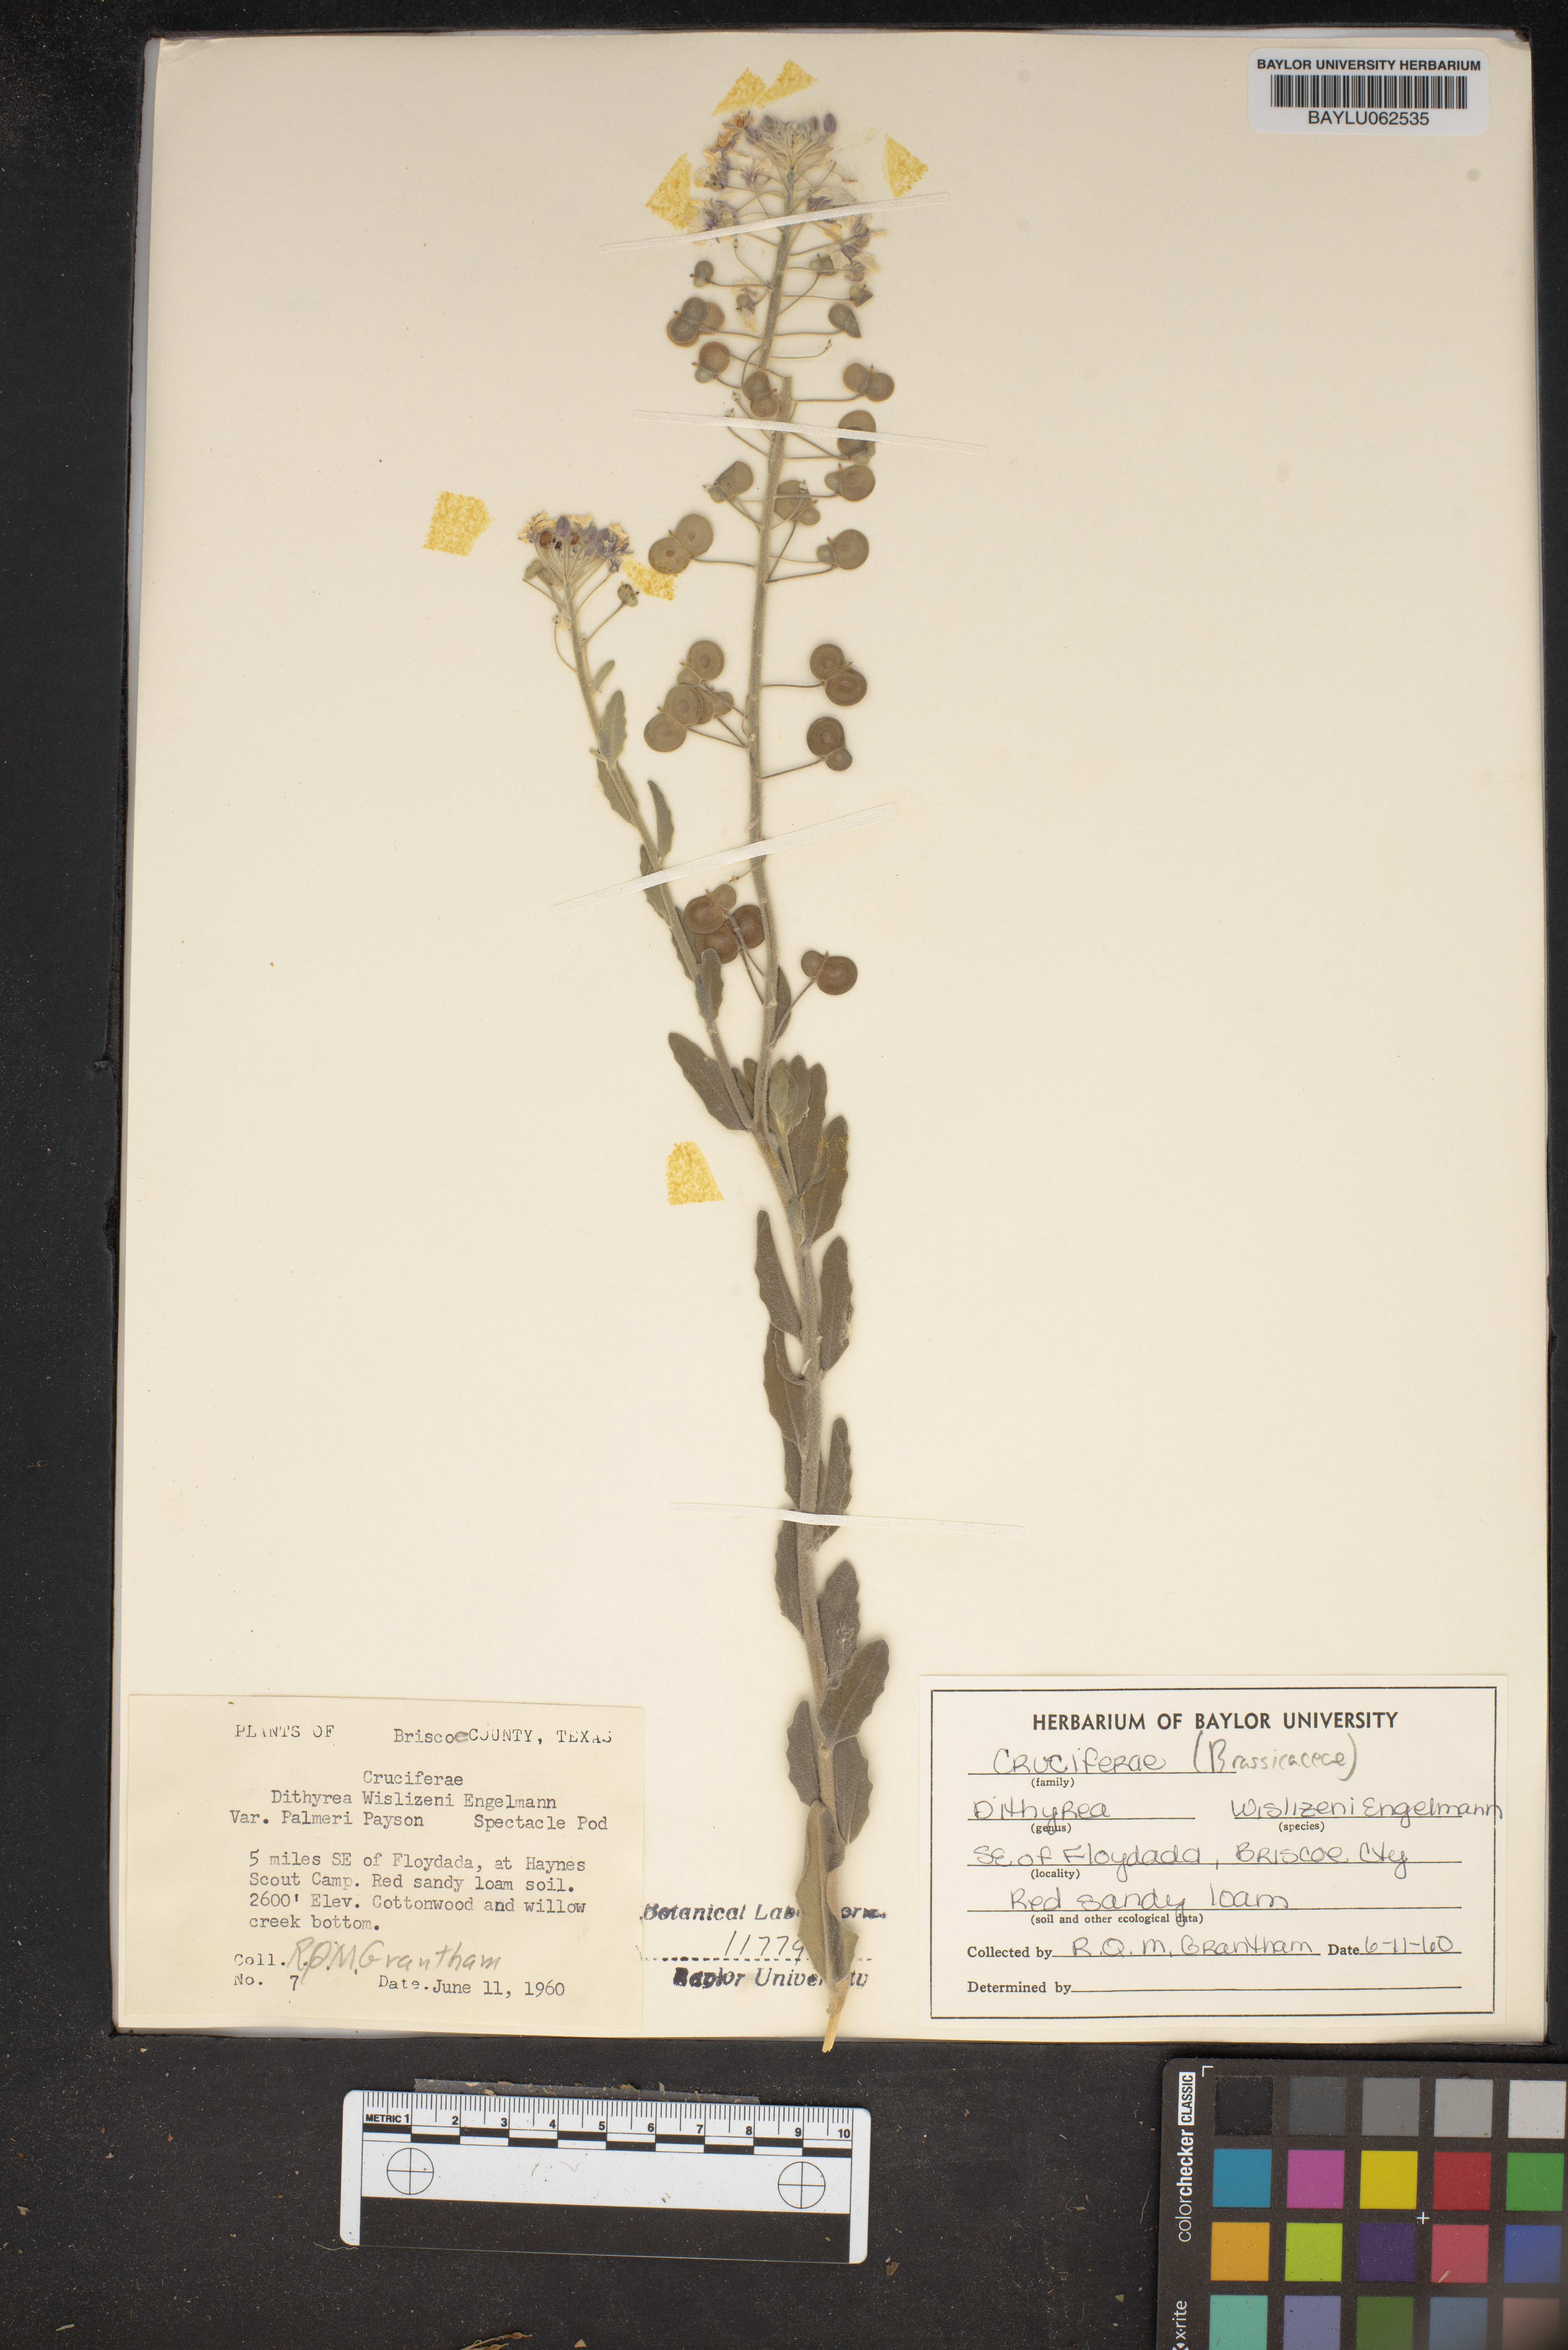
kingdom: Plantae
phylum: Tracheophyta
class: Magnoliopsida
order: Brassicales
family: Brassicaceae
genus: Dimorphocarpa
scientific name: Dimorphocarpa candicans
